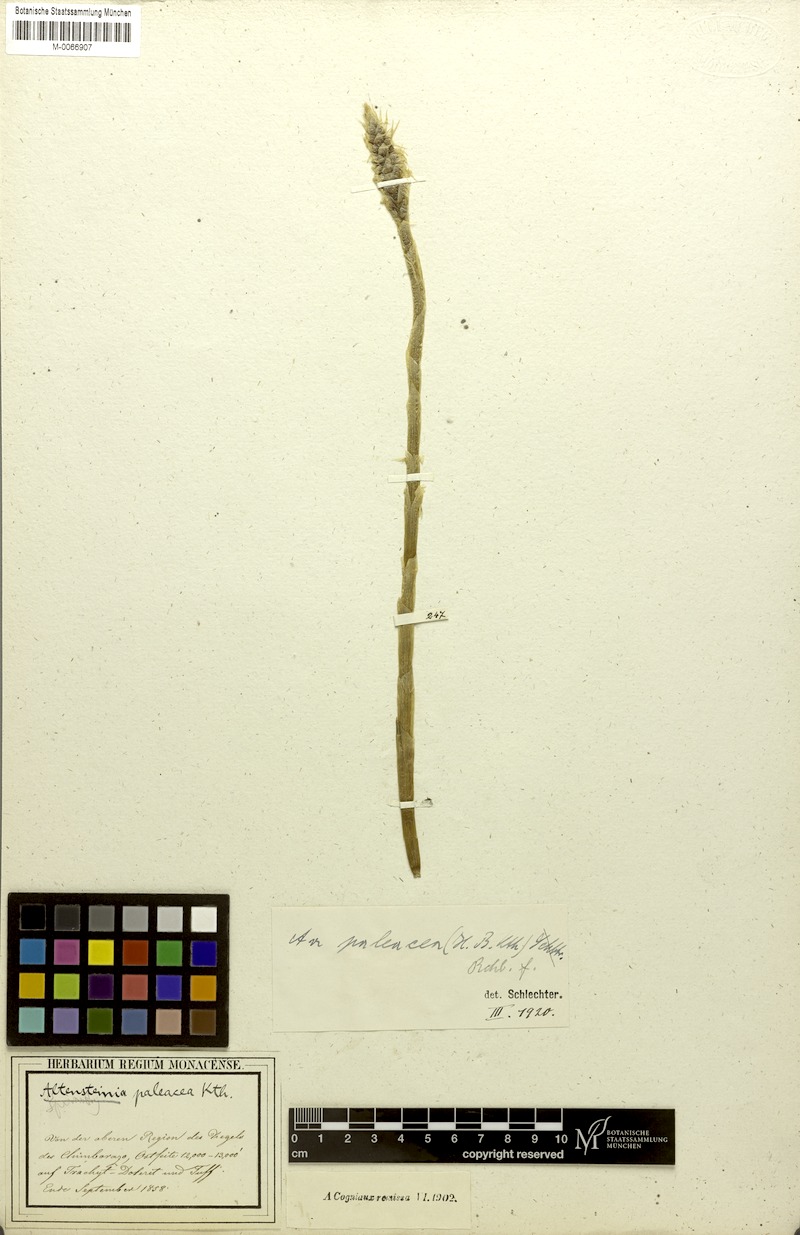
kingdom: Plantae
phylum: Tracheophyta
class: Liliopsida
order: Asparagales
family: Orchidaceae
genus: Aa
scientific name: Aa paleacea
